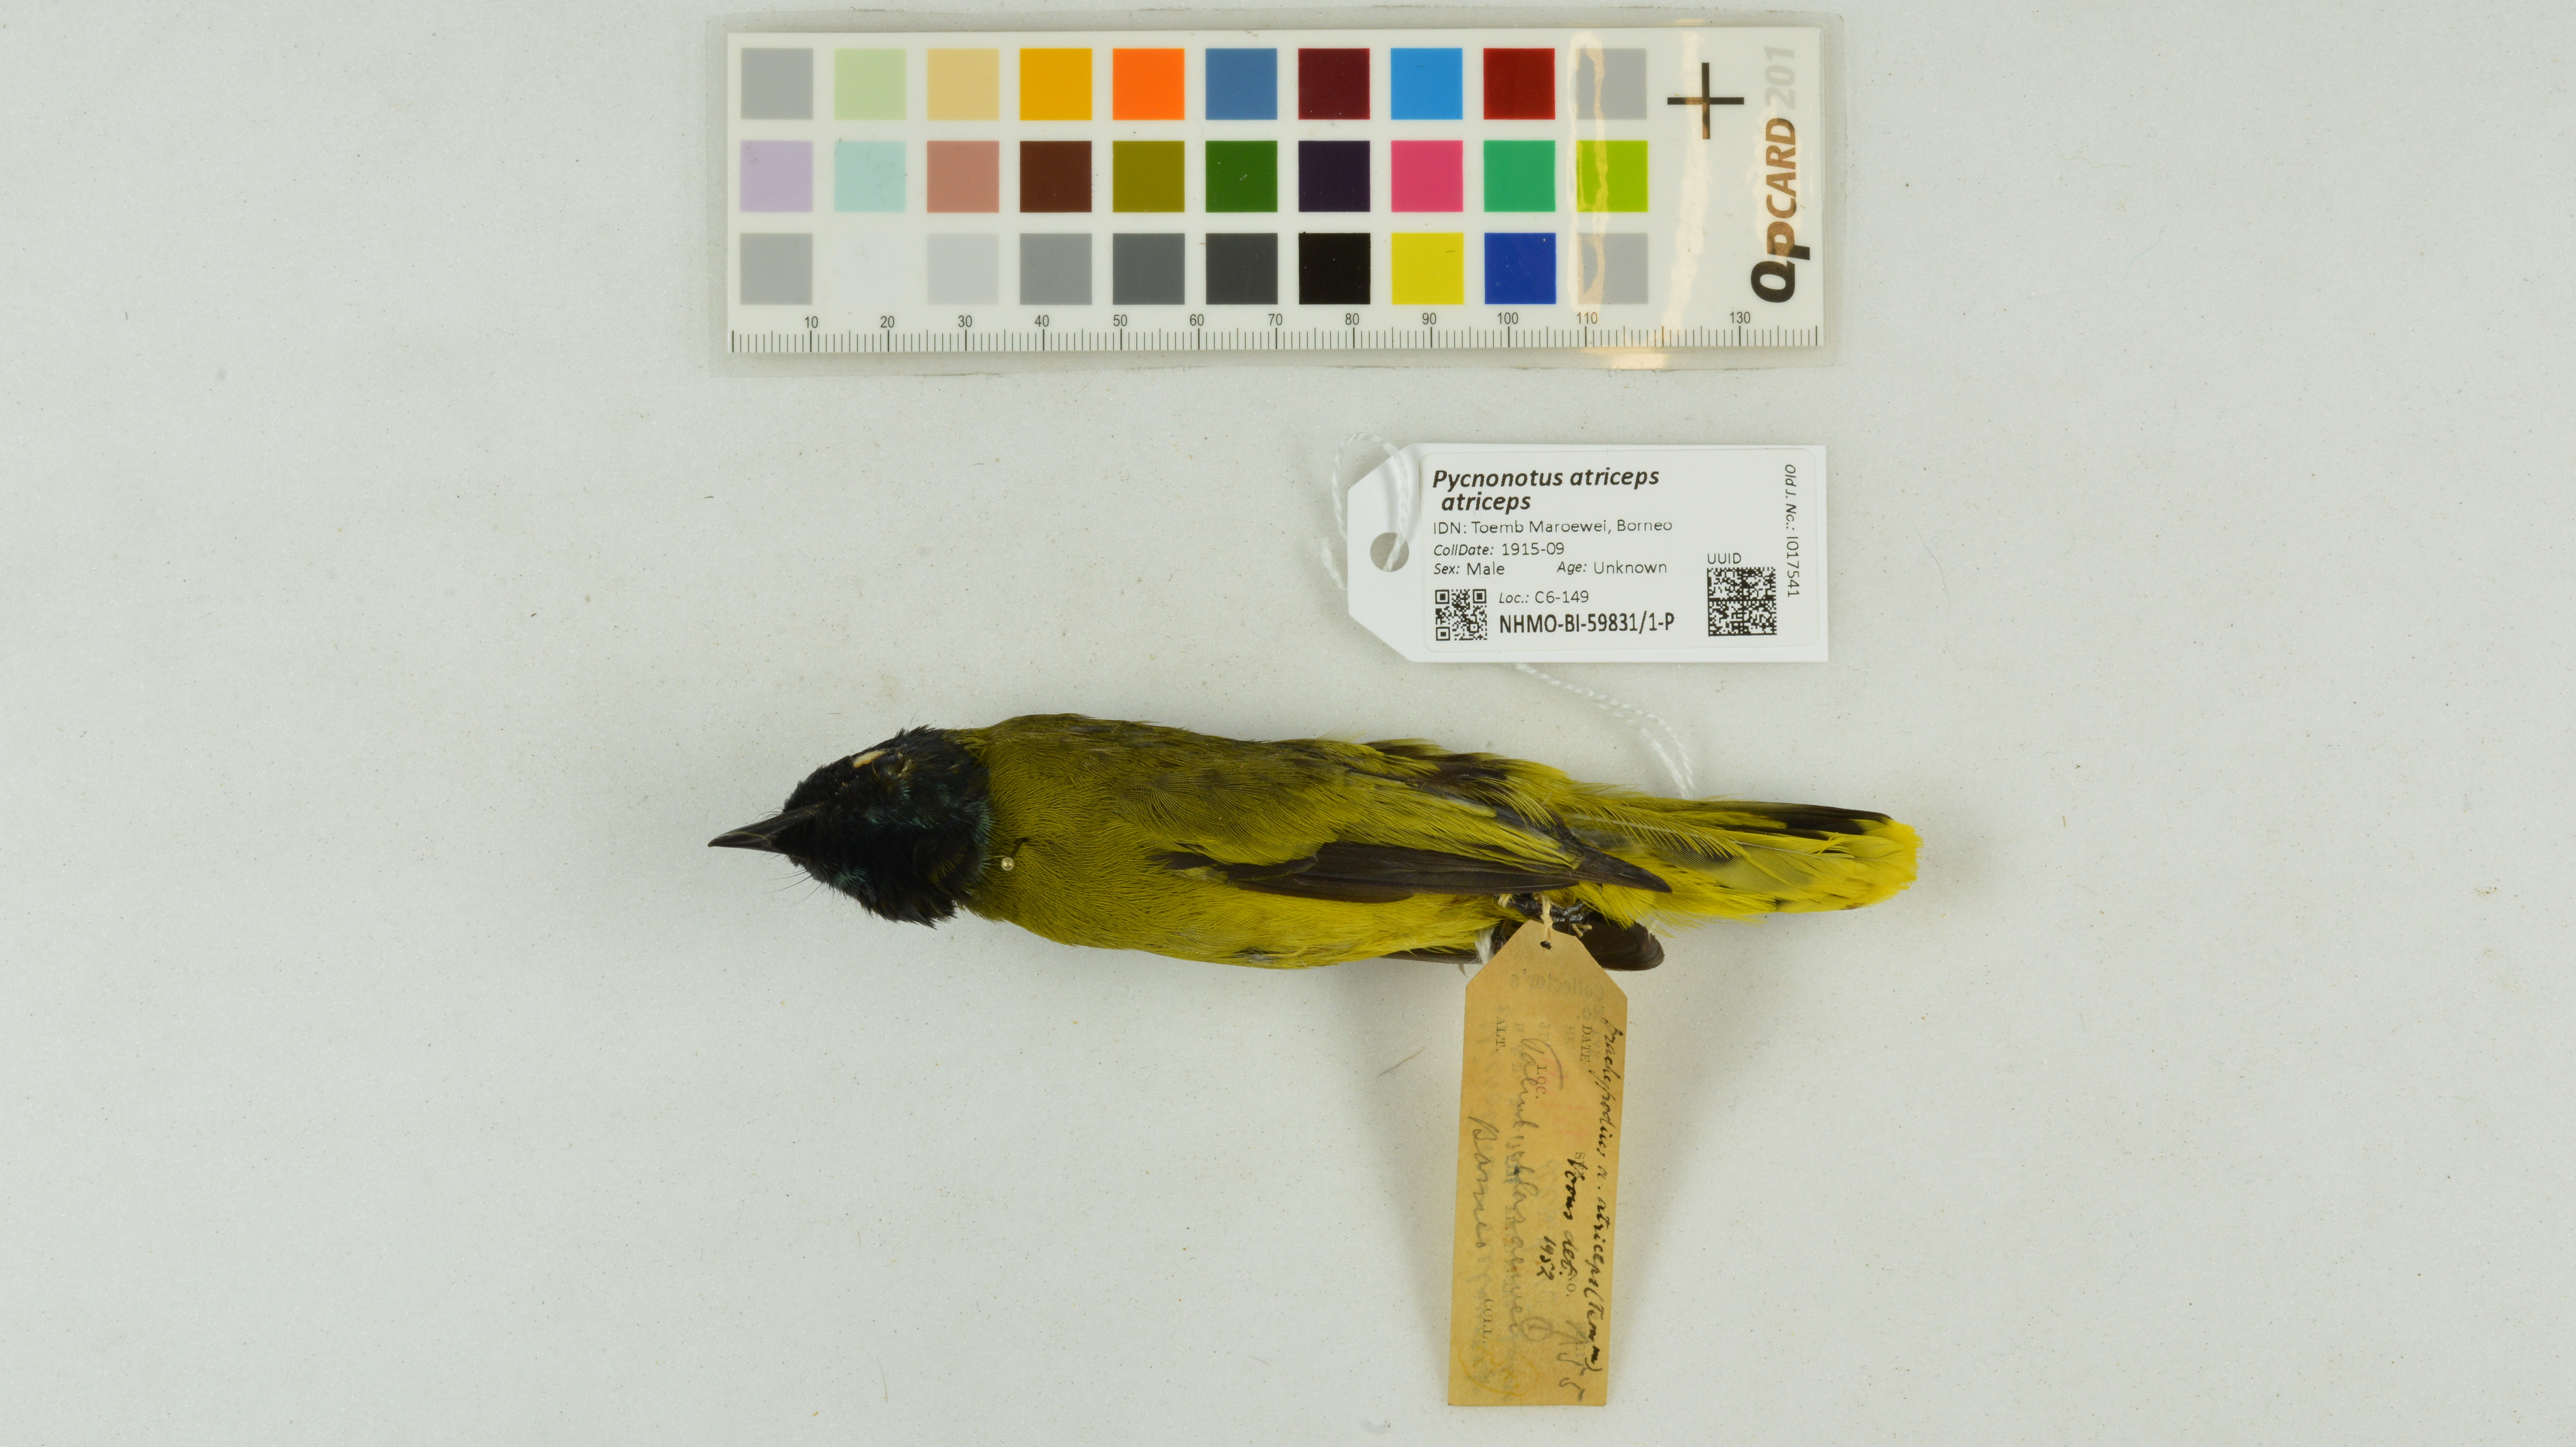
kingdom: Animalia
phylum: Chordata
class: Aves
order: Passeriformes
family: Pycnonotidae
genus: Brachypodius
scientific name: Brachypodius melanocephalos
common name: Black-headed bulbul
